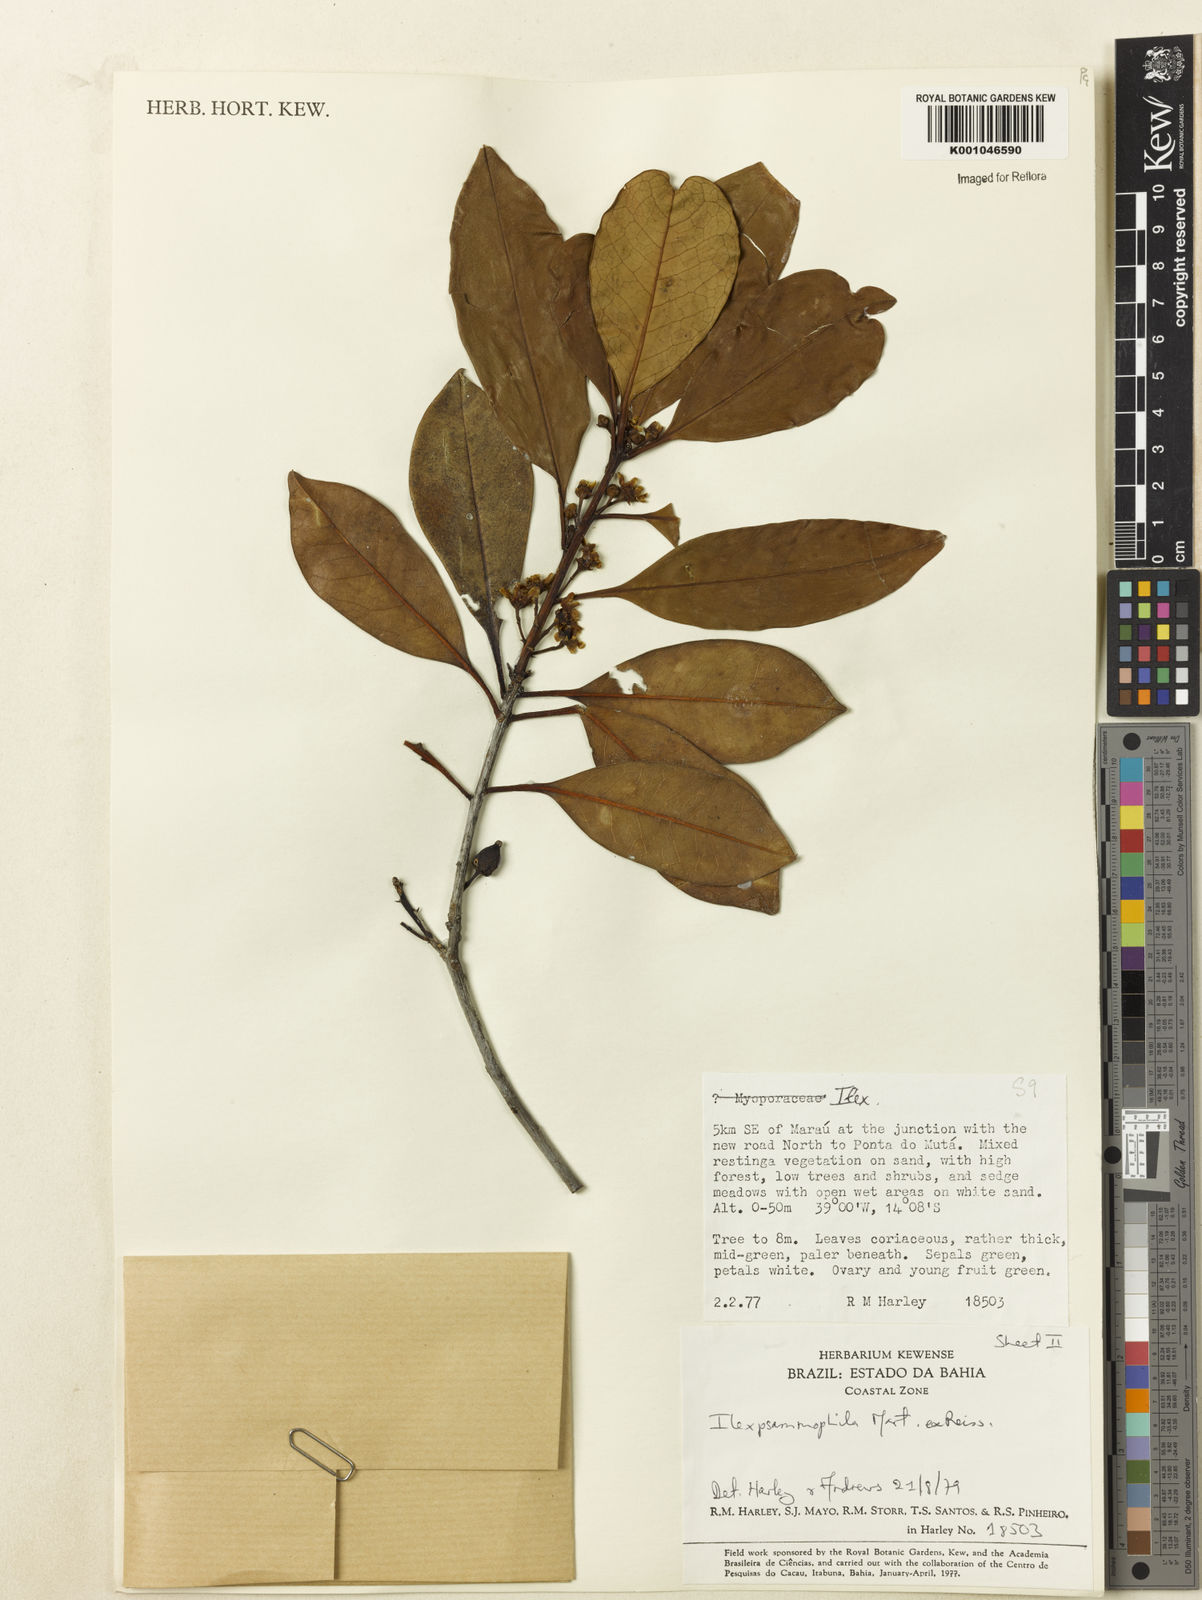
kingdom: Plantae
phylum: Tracheophyta
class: Magnoliopsida
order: Aquifoliales
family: Aquifoliaceae
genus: Ilex
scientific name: Ilex psammophila
